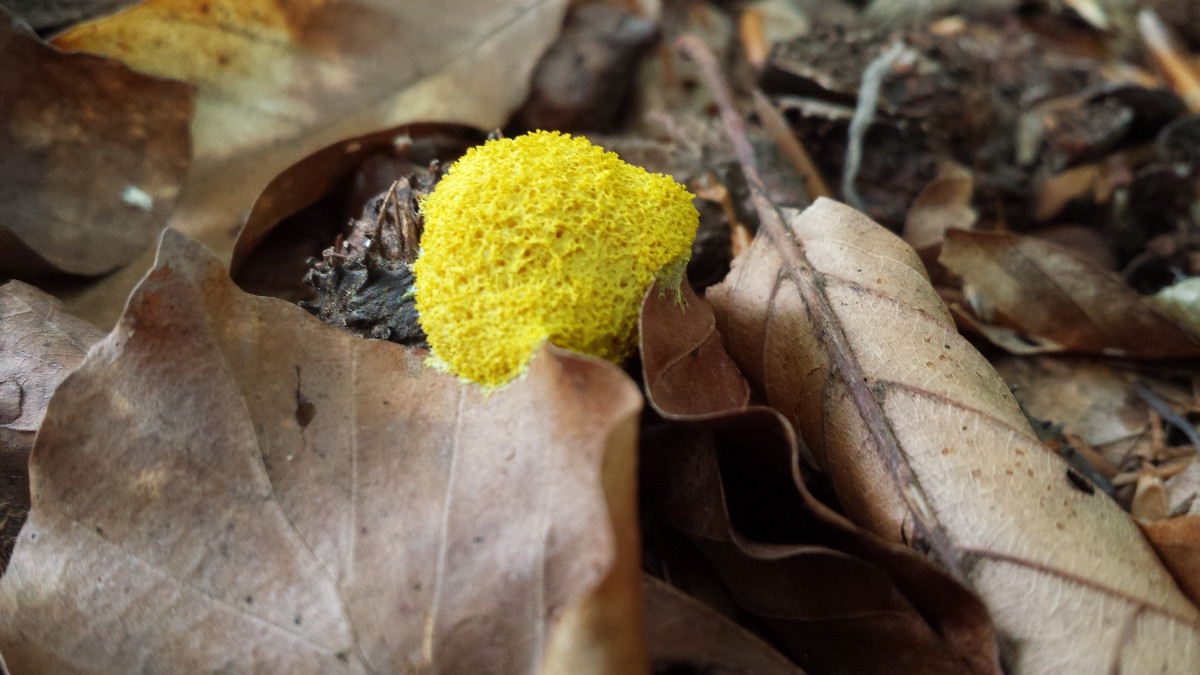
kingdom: Protozoa
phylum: Mycetozoa
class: Myxomycetes
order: Physarales
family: Physaraceae
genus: Fuligo
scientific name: Fuligo septica
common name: gul troldsmør
